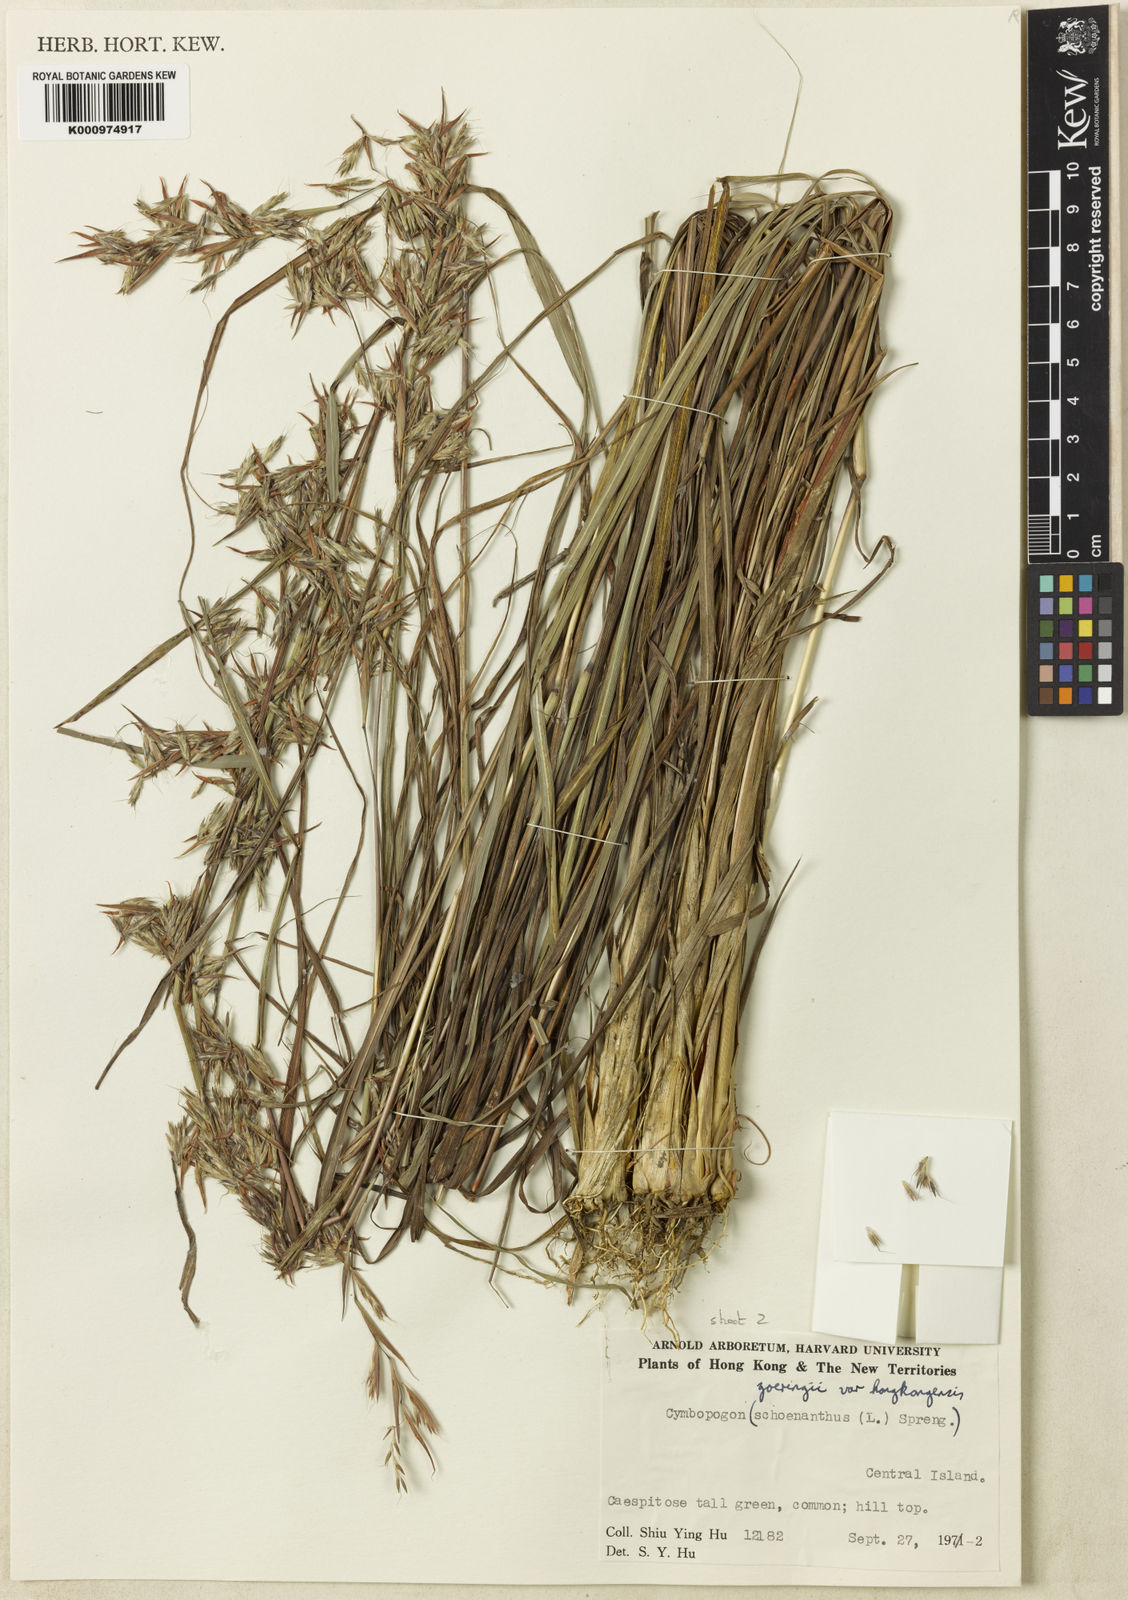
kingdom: Plantae
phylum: Tracheophyta
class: Liliopsida
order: Poales
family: Poaceae
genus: Cymbopogon
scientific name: Cymbopogon goeringii
